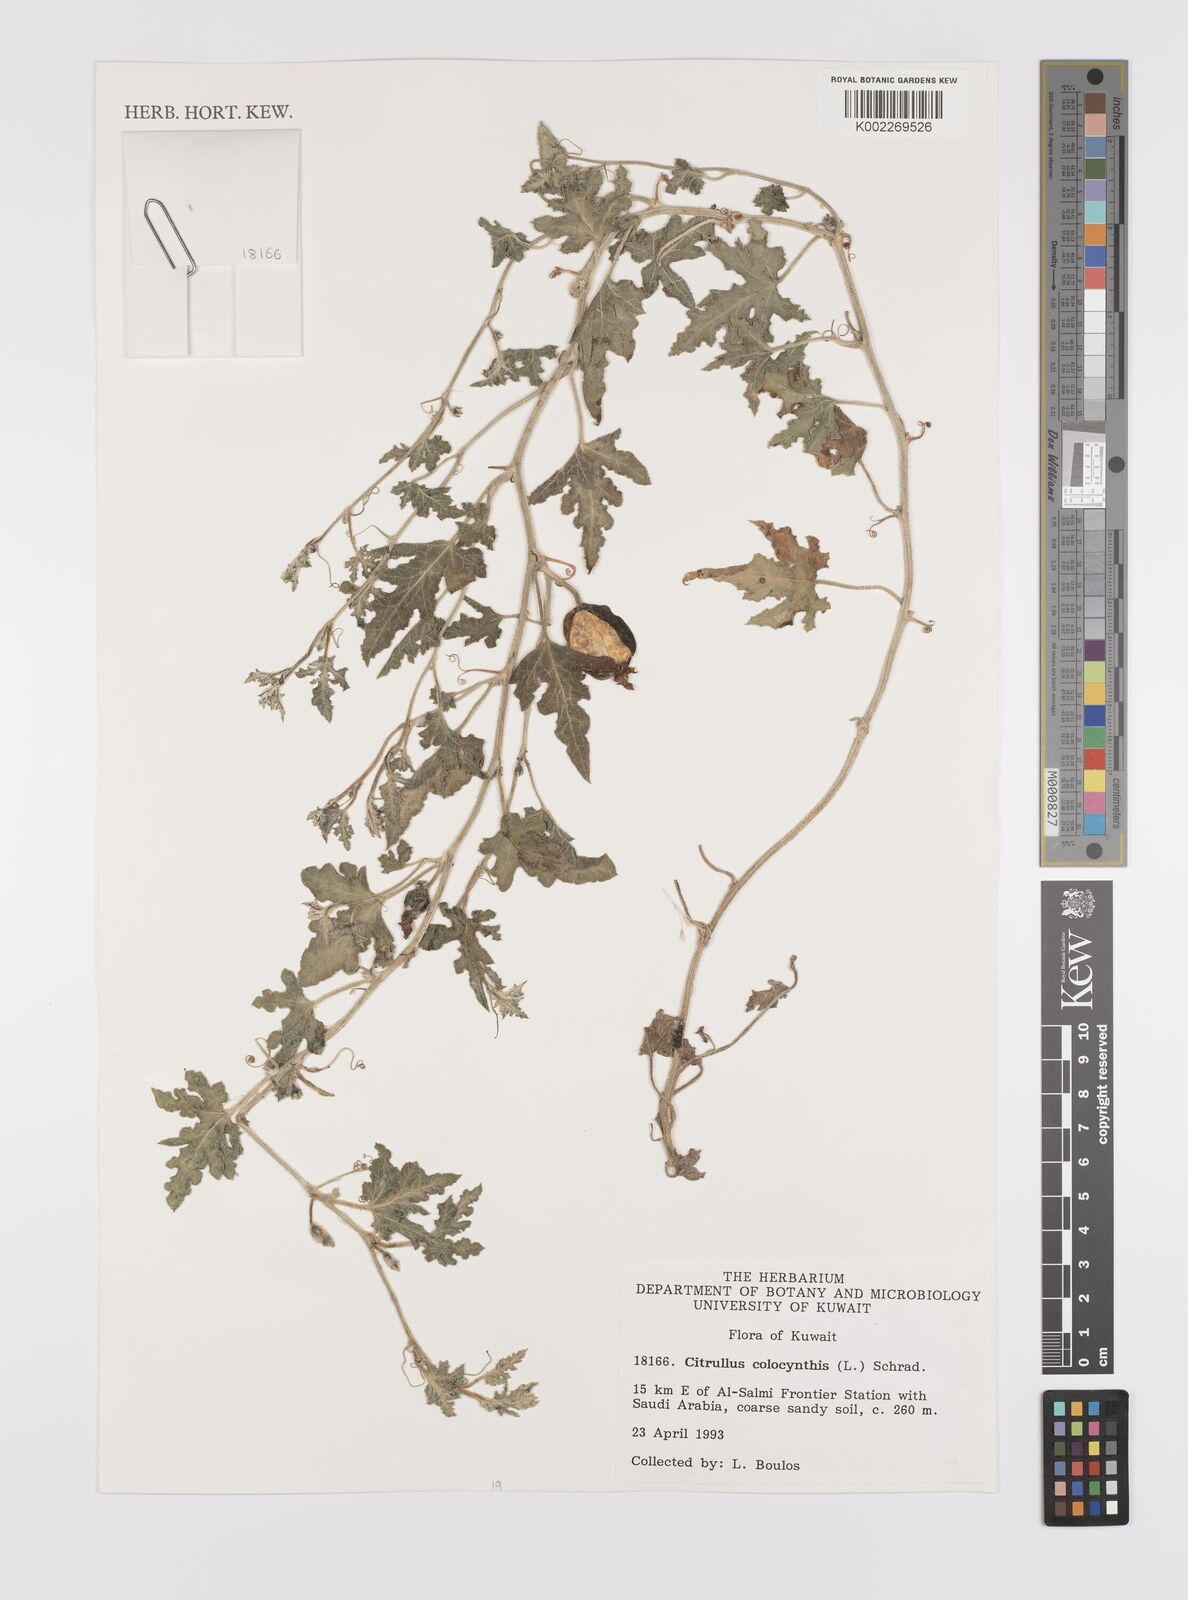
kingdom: Plantae
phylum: Tracheophyta
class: Magnoliopsida
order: Cucurbitales
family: Cucurbitaceae
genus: Citrullus
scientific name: Citrullus colocynthis
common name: Colocynth
